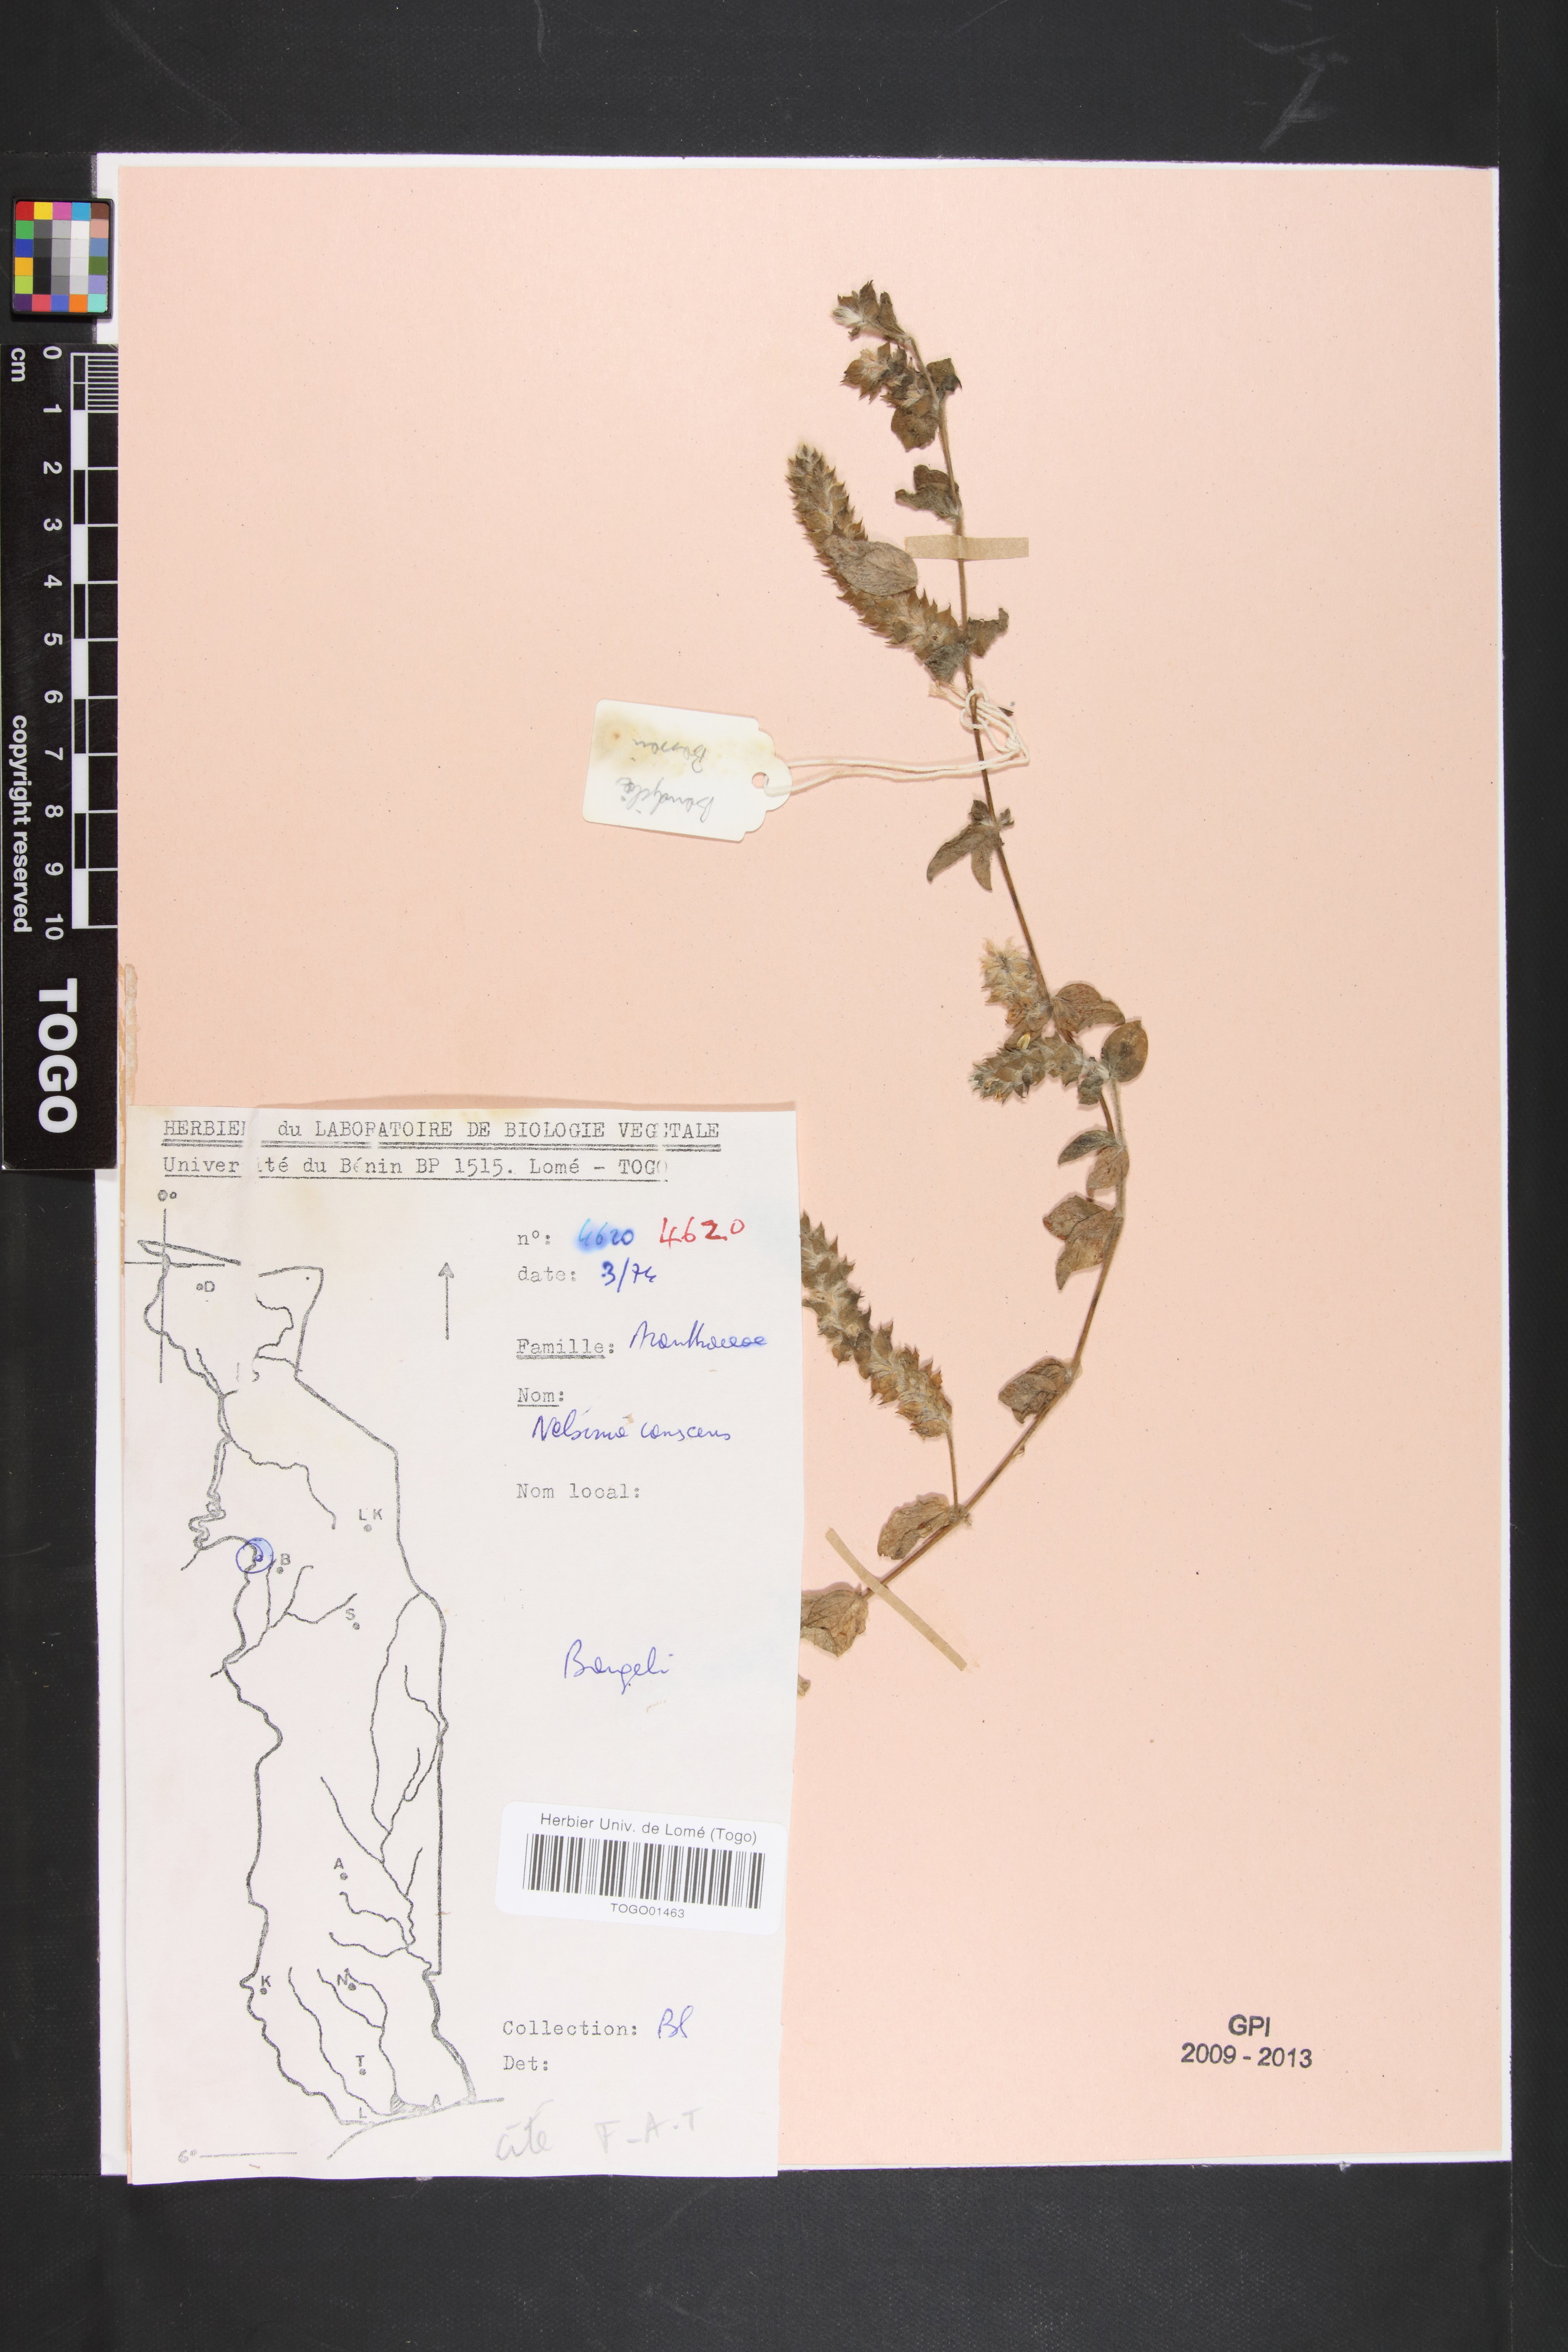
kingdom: Plantae
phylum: Tracheophyta
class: Magnoliopsida
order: Lamiales
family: Acanthaceae
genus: Nelsonia
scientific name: Nelsonia canescens
